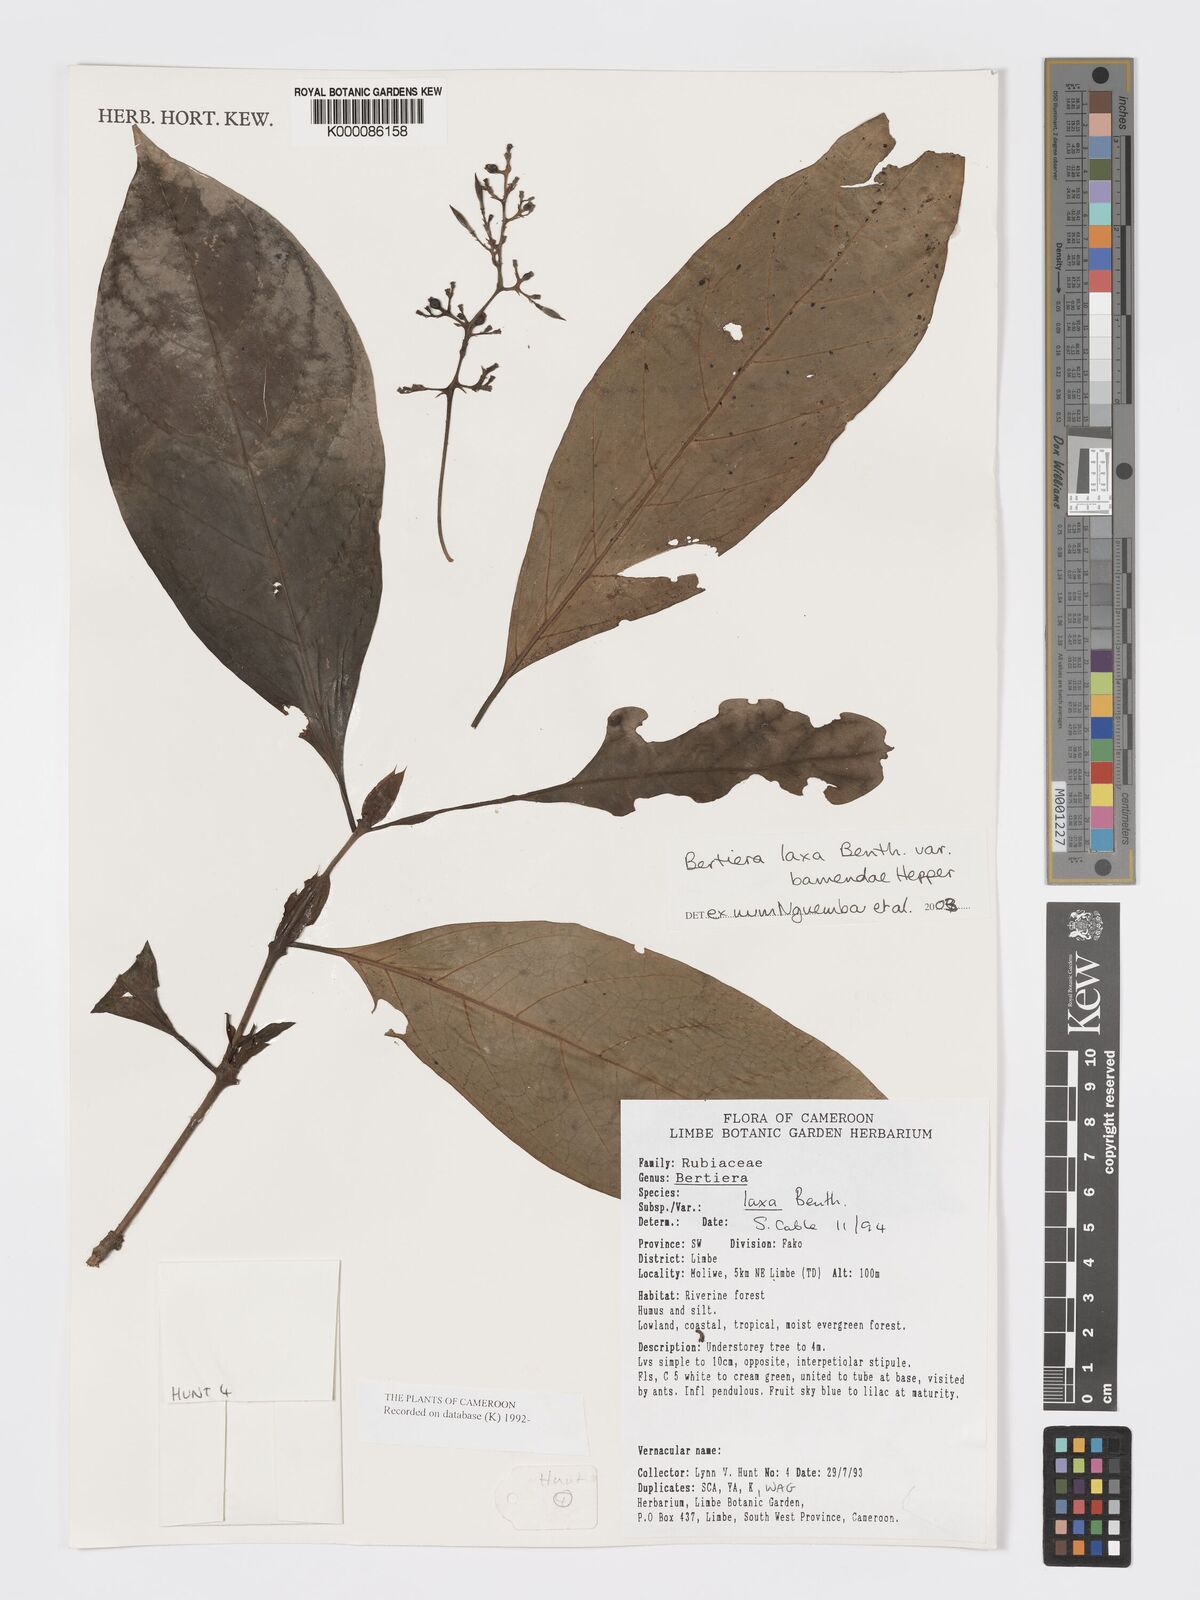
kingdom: Plantae
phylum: Tracheophyta
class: Magnoliopsida
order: Gentianales
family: Rubiaceae
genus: Bertiera
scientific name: Bertiera laxa
